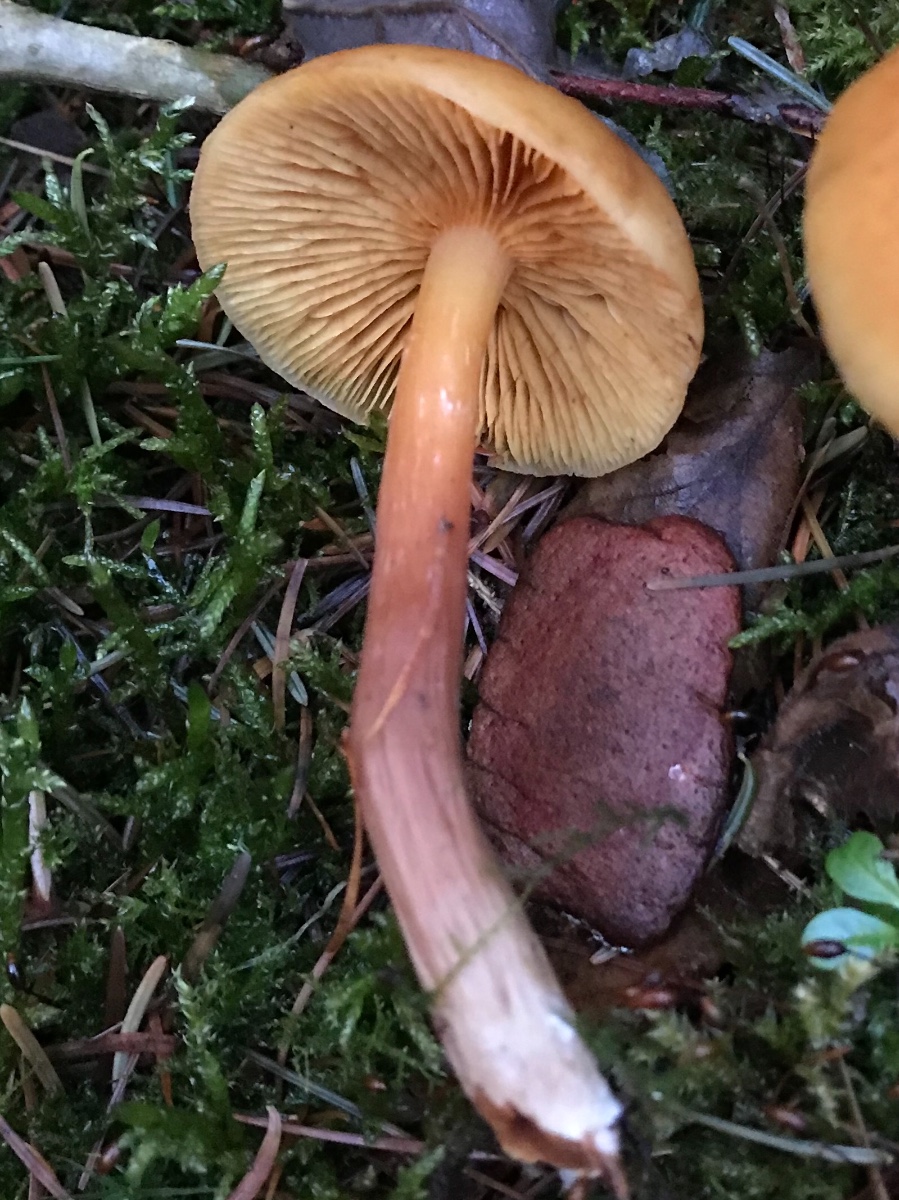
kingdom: Fungi
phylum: Basidiomycota
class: Agaricomycetes
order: Agaricales
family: Hymenogastraceae
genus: Gymnopilus
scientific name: Gymnopilus penetrans
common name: plettet flammehat
